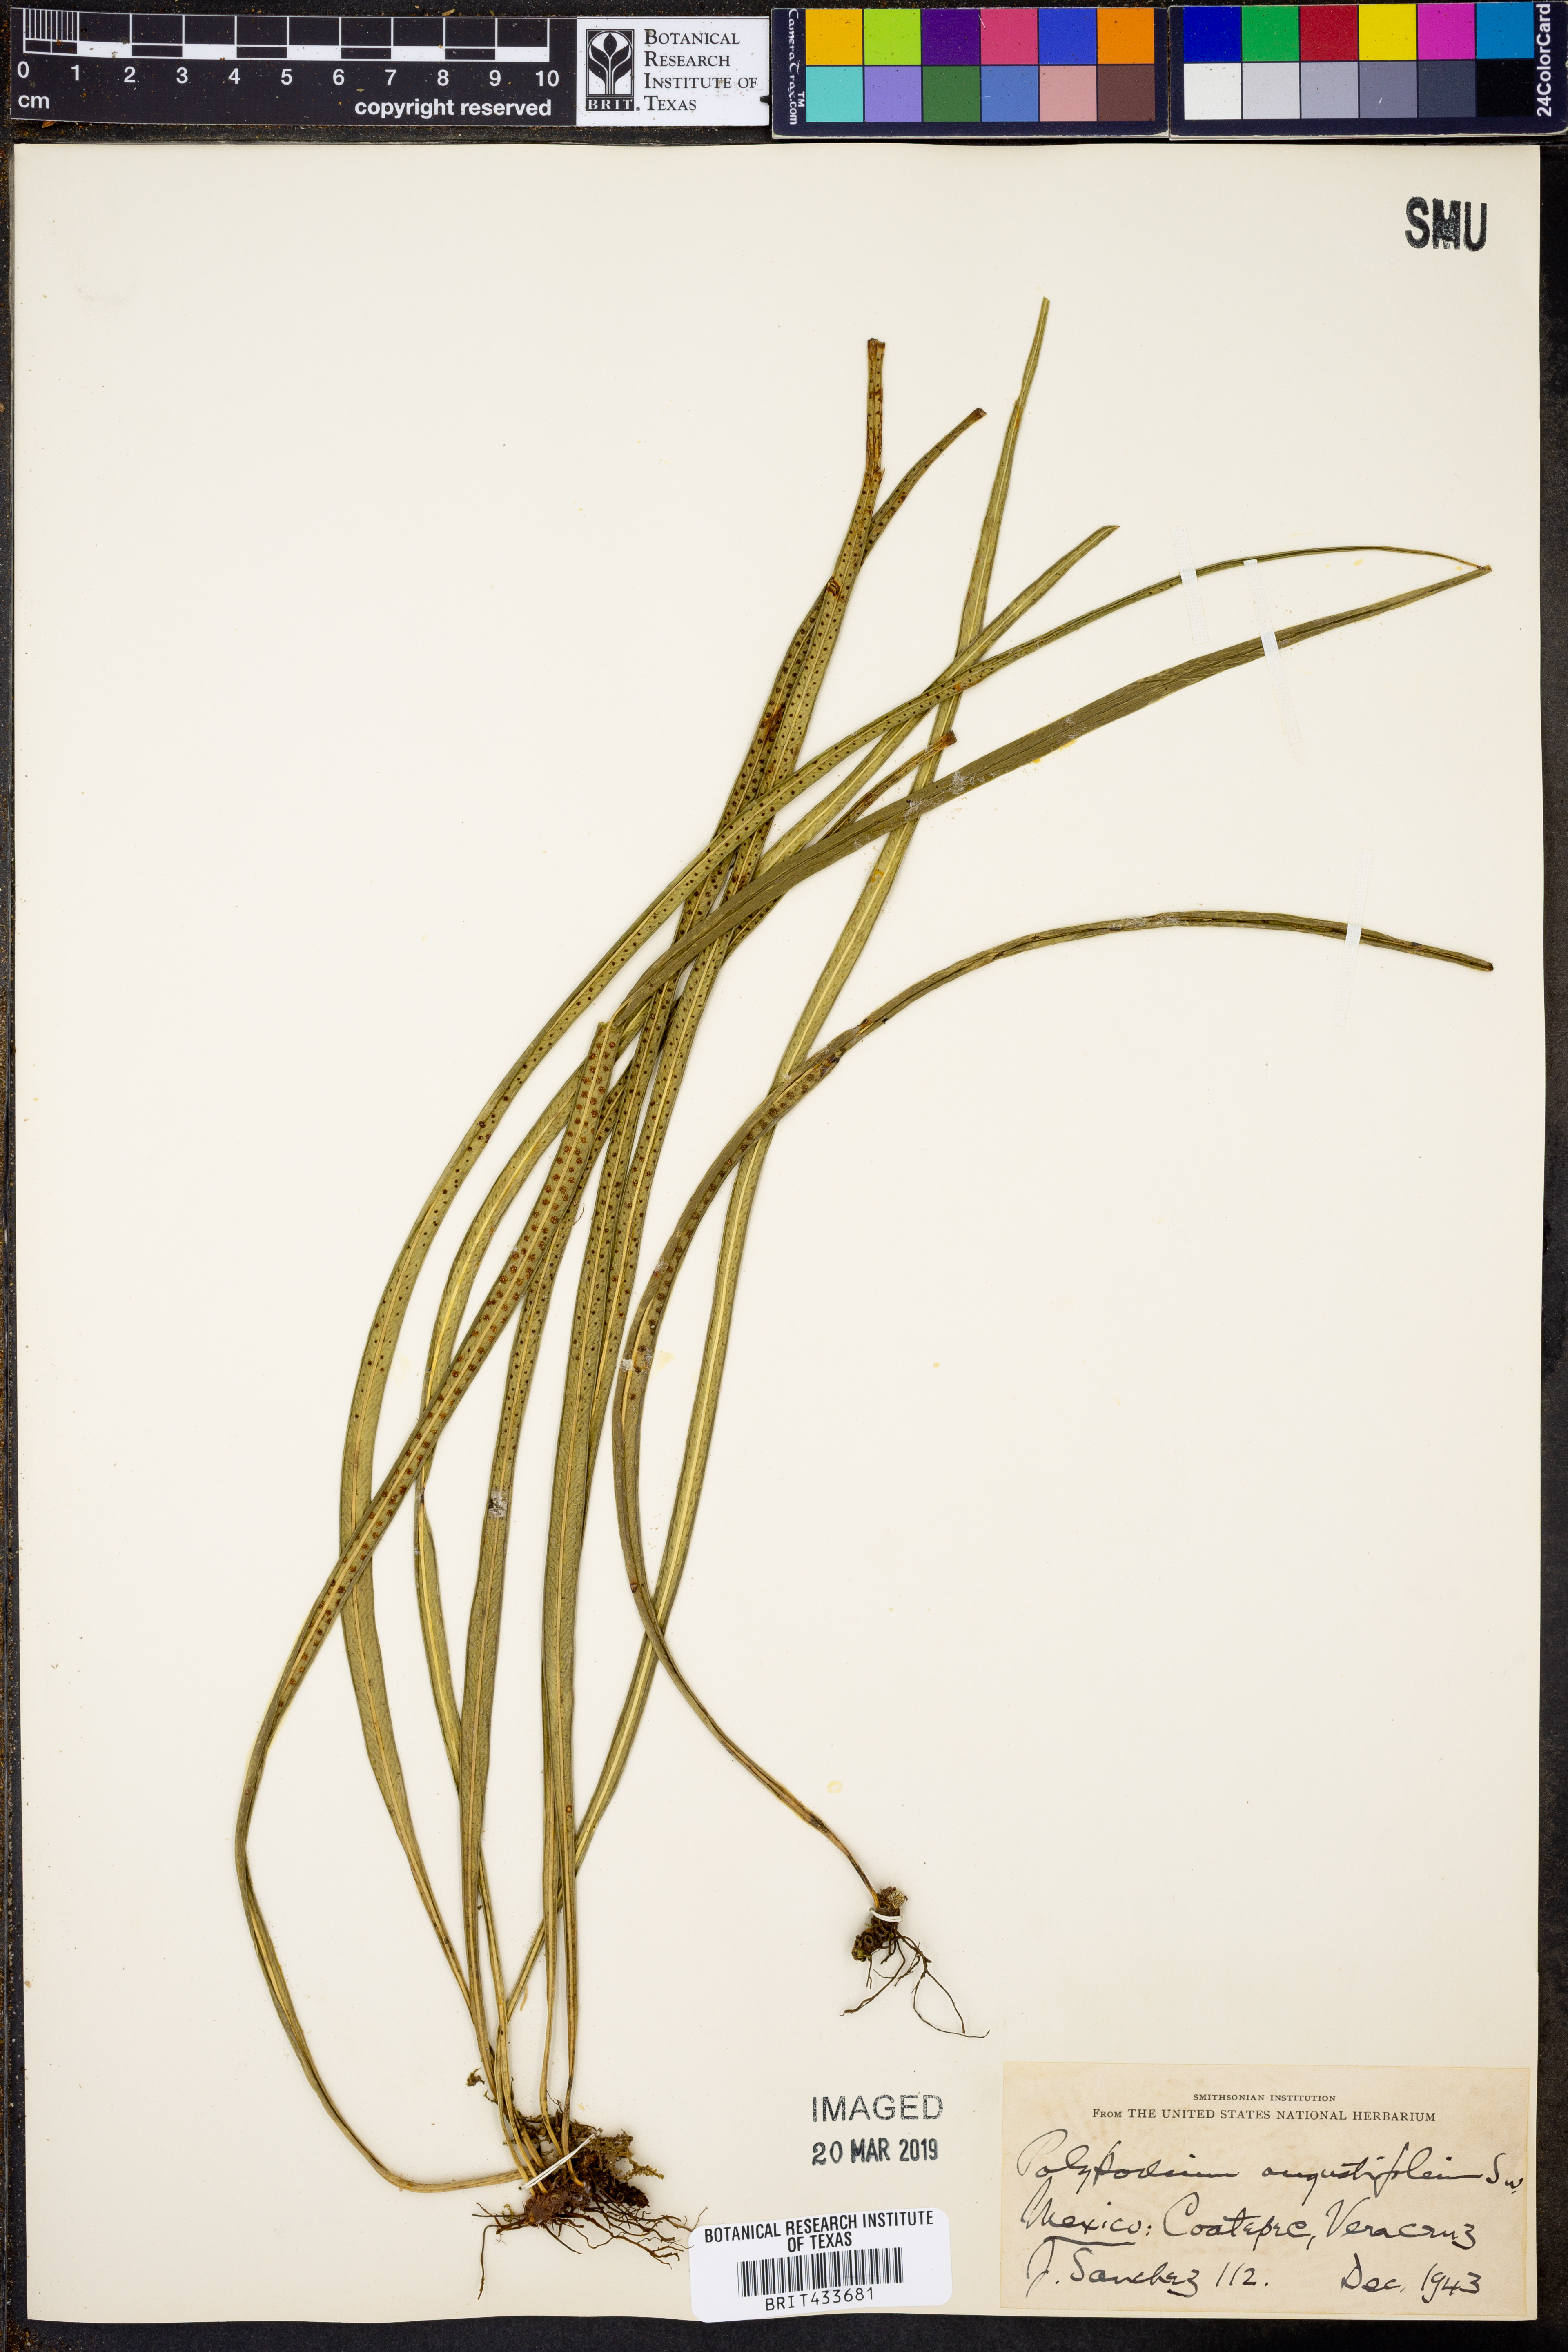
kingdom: Plantae
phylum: Tracheophyta
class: Polypodiopsida
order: Polypodiales
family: Polypodiaceae
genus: Campyloneurum
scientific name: Campyloneurum angustifolium
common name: Narrow-leaf strap fern
